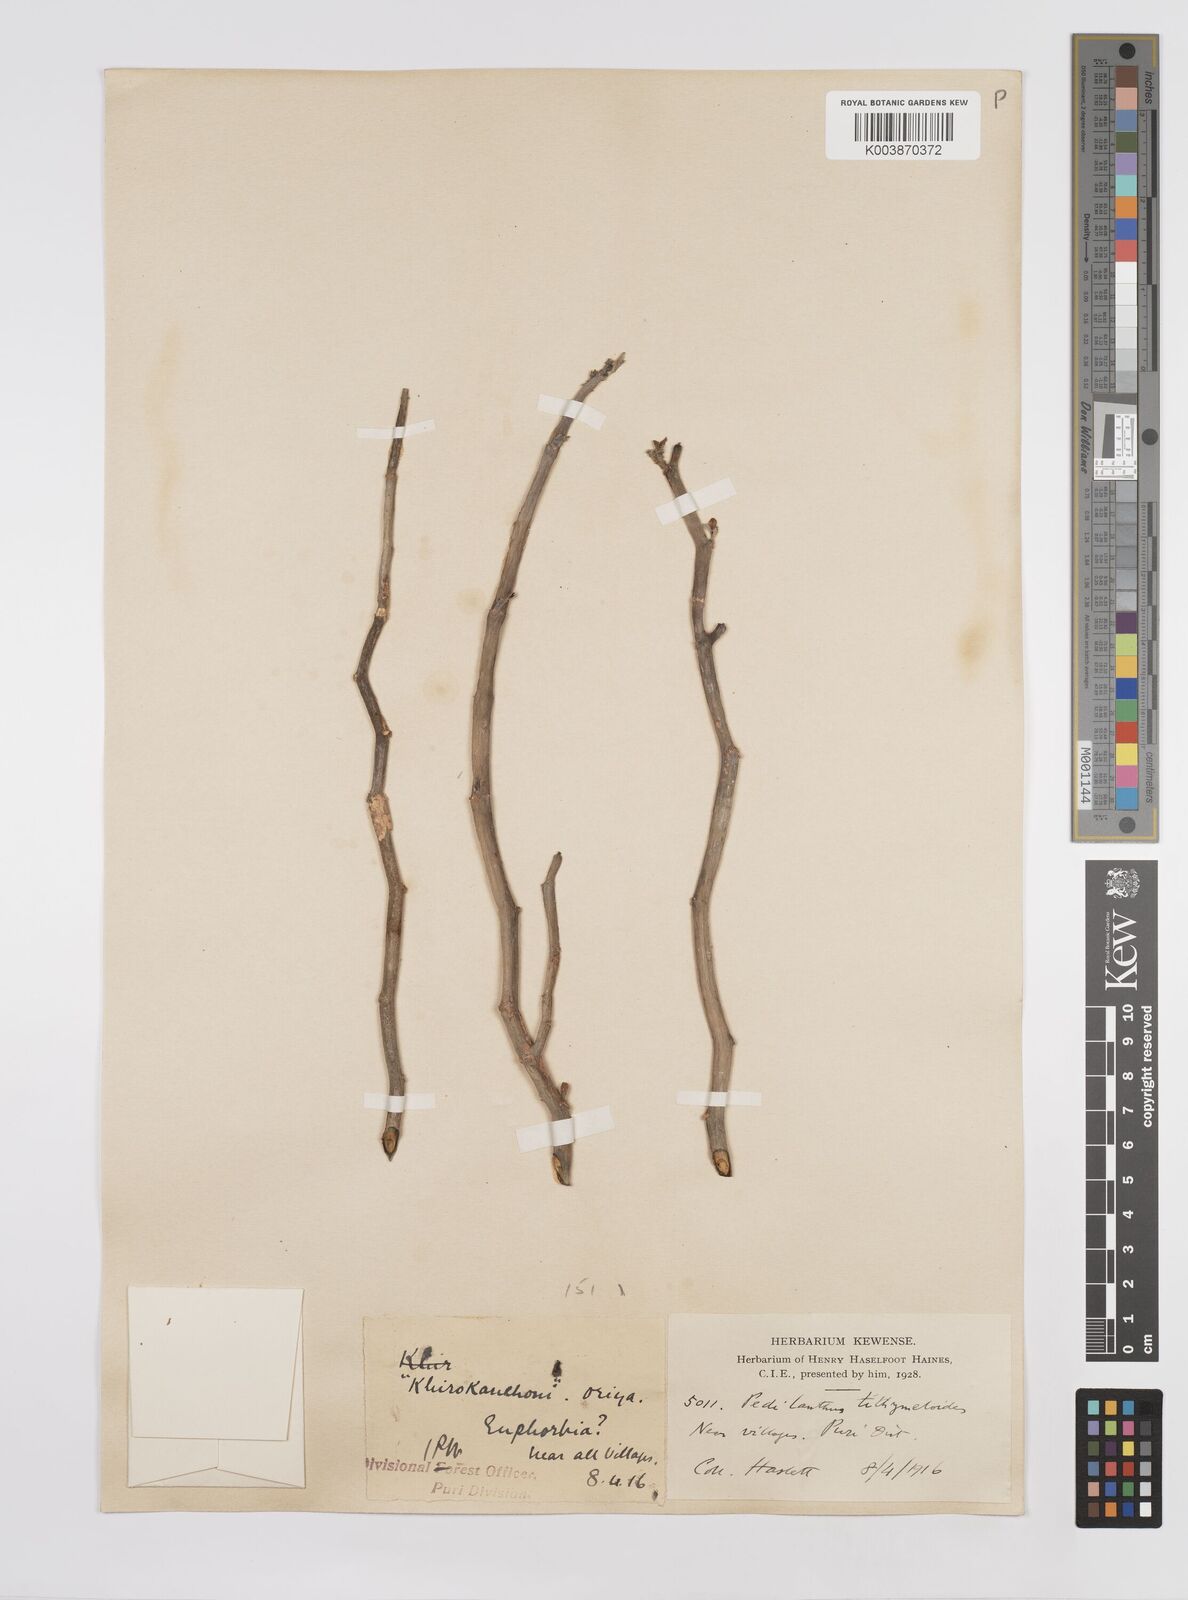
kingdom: Plantae
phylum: Tracheophyta
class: Magnoliopsida
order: Malpighiales
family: Euphorbiaceae
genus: Euphorbia
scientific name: Euphorbia tithymaloides
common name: Slipperplant
